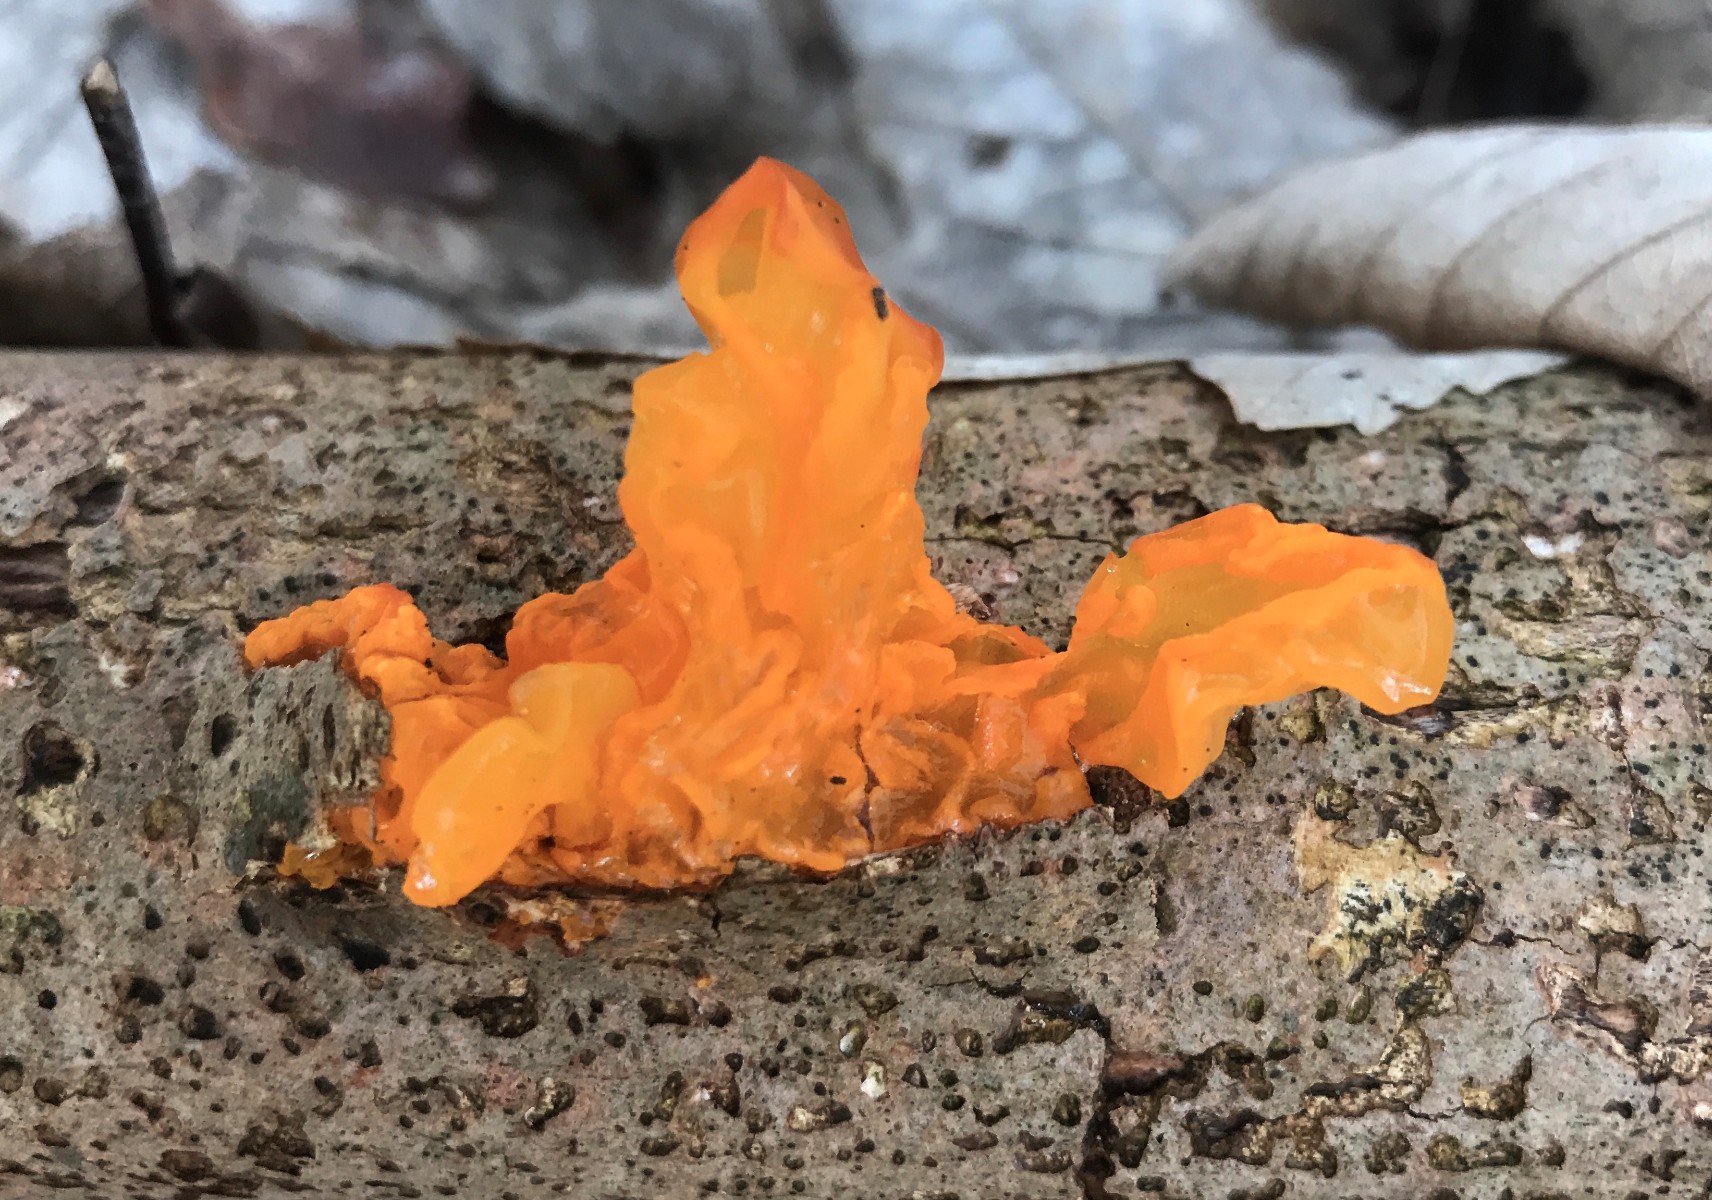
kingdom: Fungi
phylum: Basidiomycota
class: Tremellomycetes
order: Tremellales
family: Tremellaceae
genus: Tremella
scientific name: Tremella mesenterica
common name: gul bævresvamp
